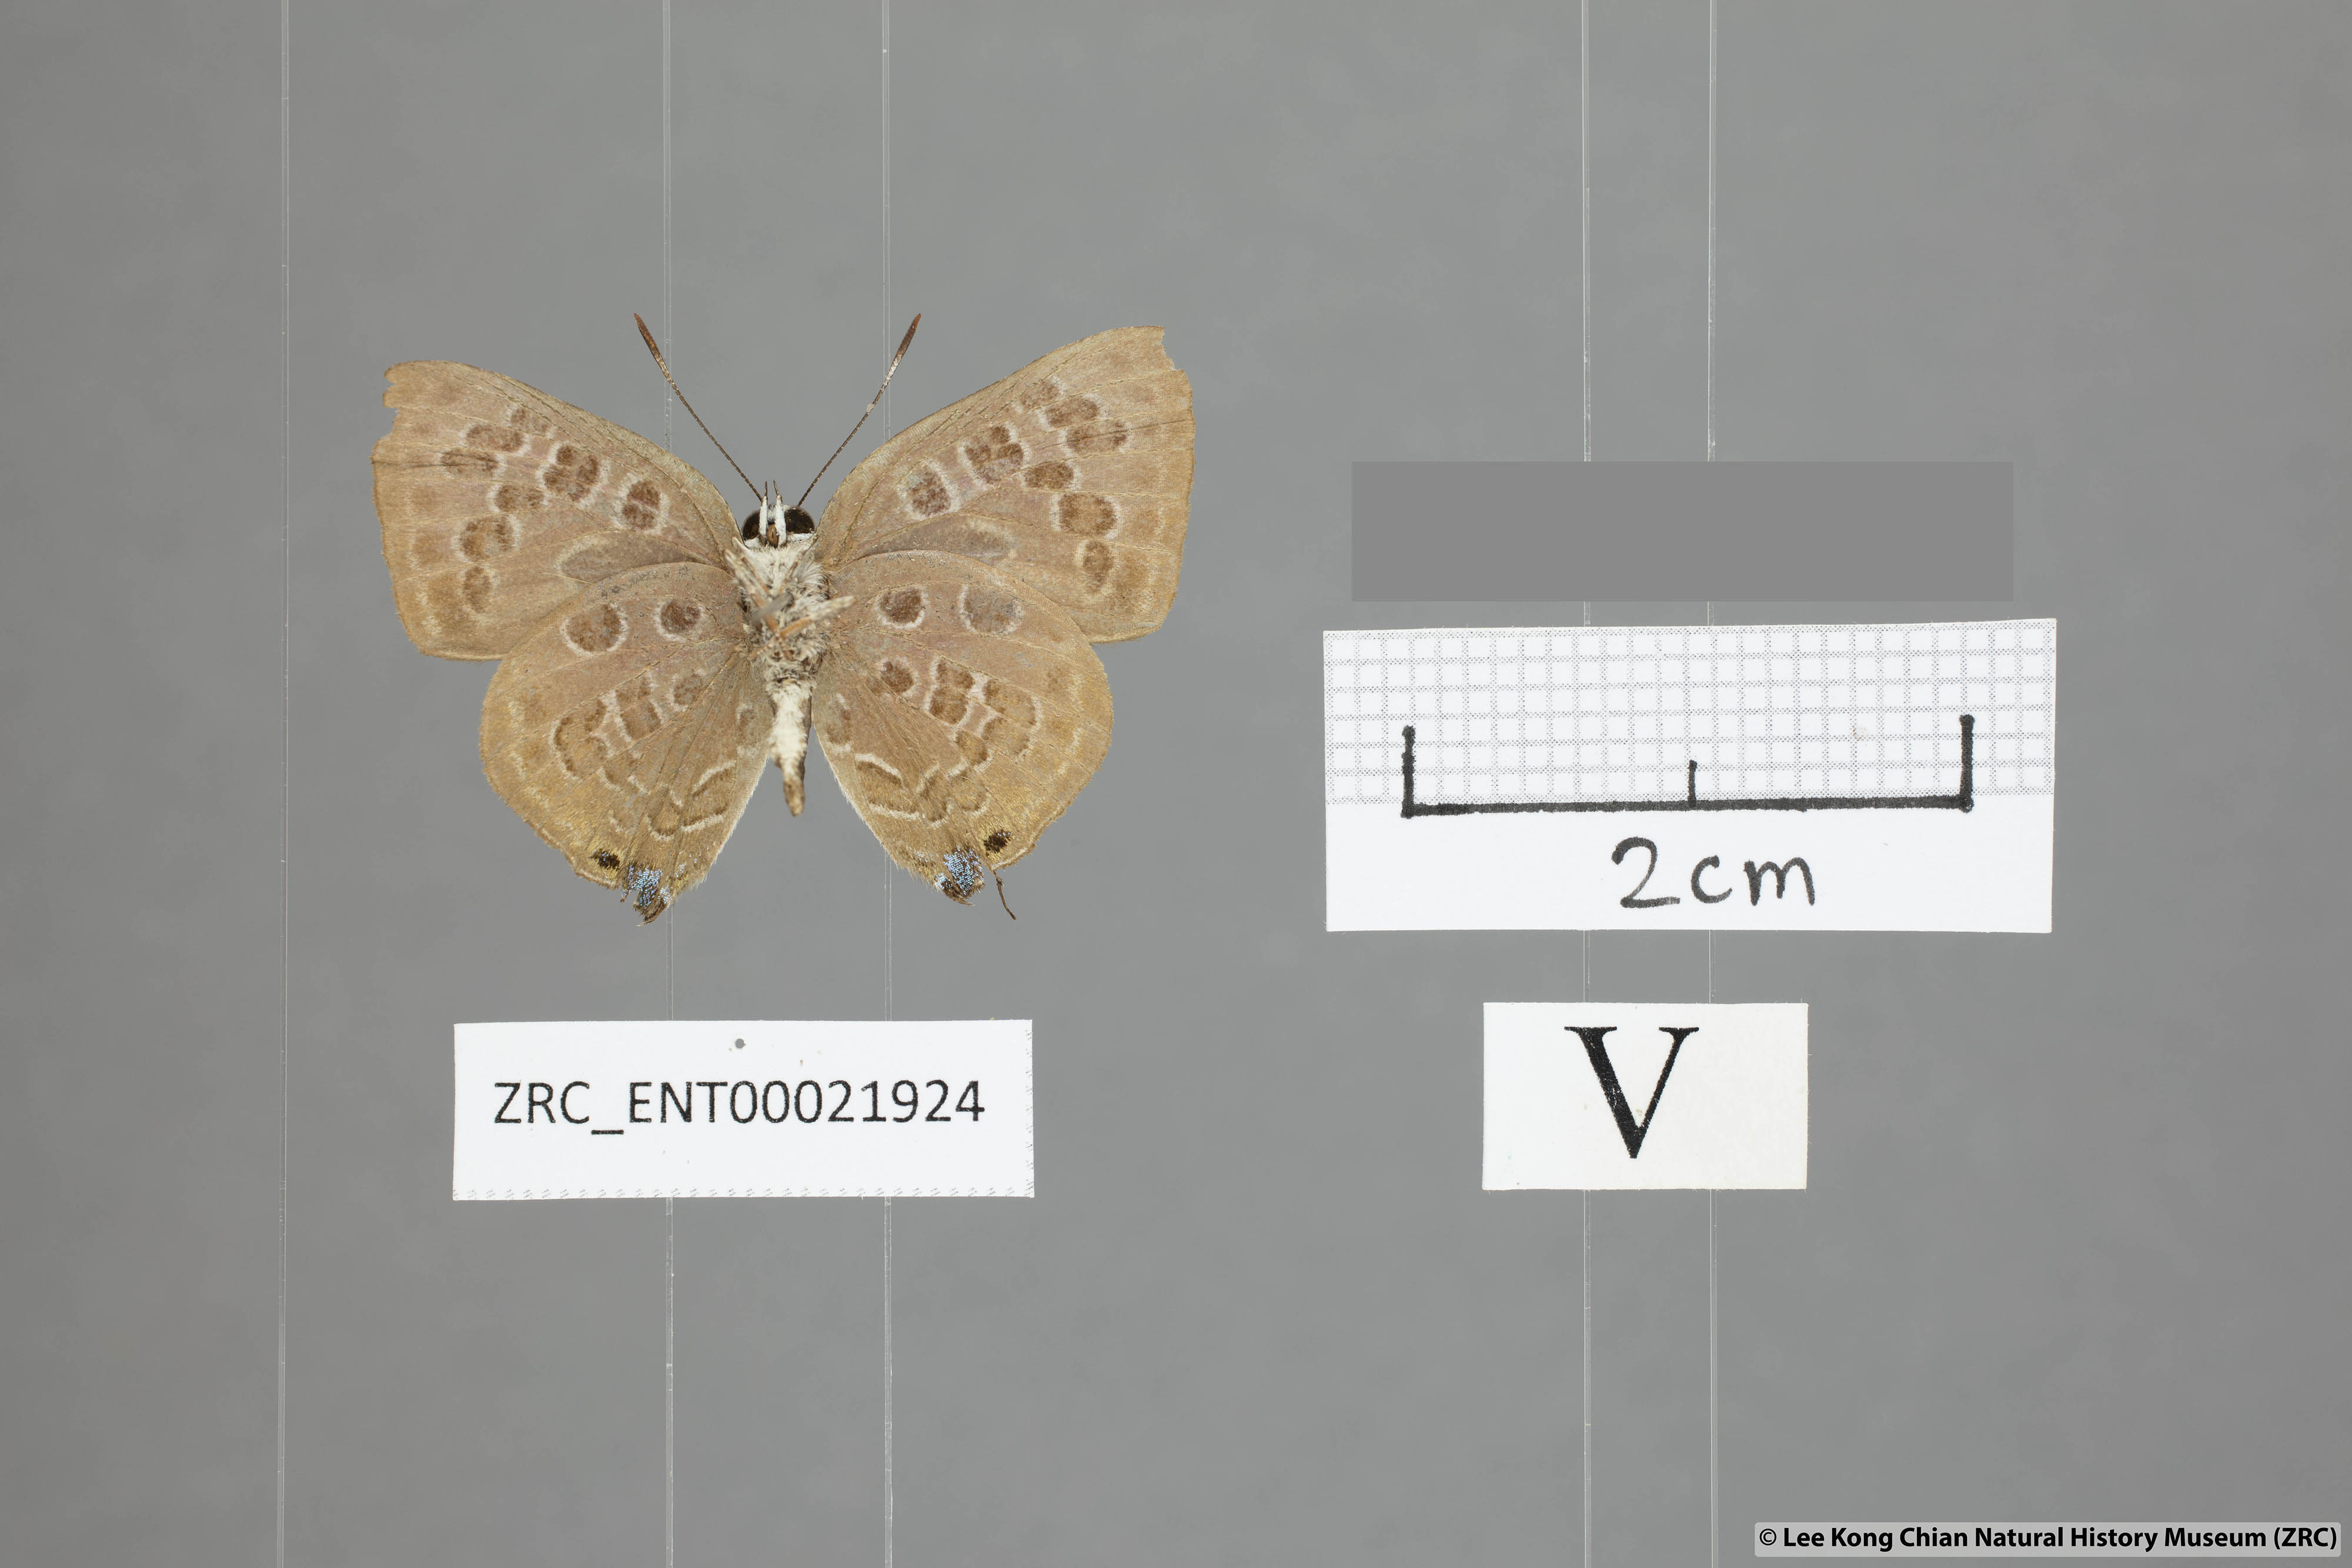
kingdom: Animalia
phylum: Arthropoda
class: Insecta
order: Lepidoptera
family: Lycaenidae
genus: Deudorix
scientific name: Deudorix
